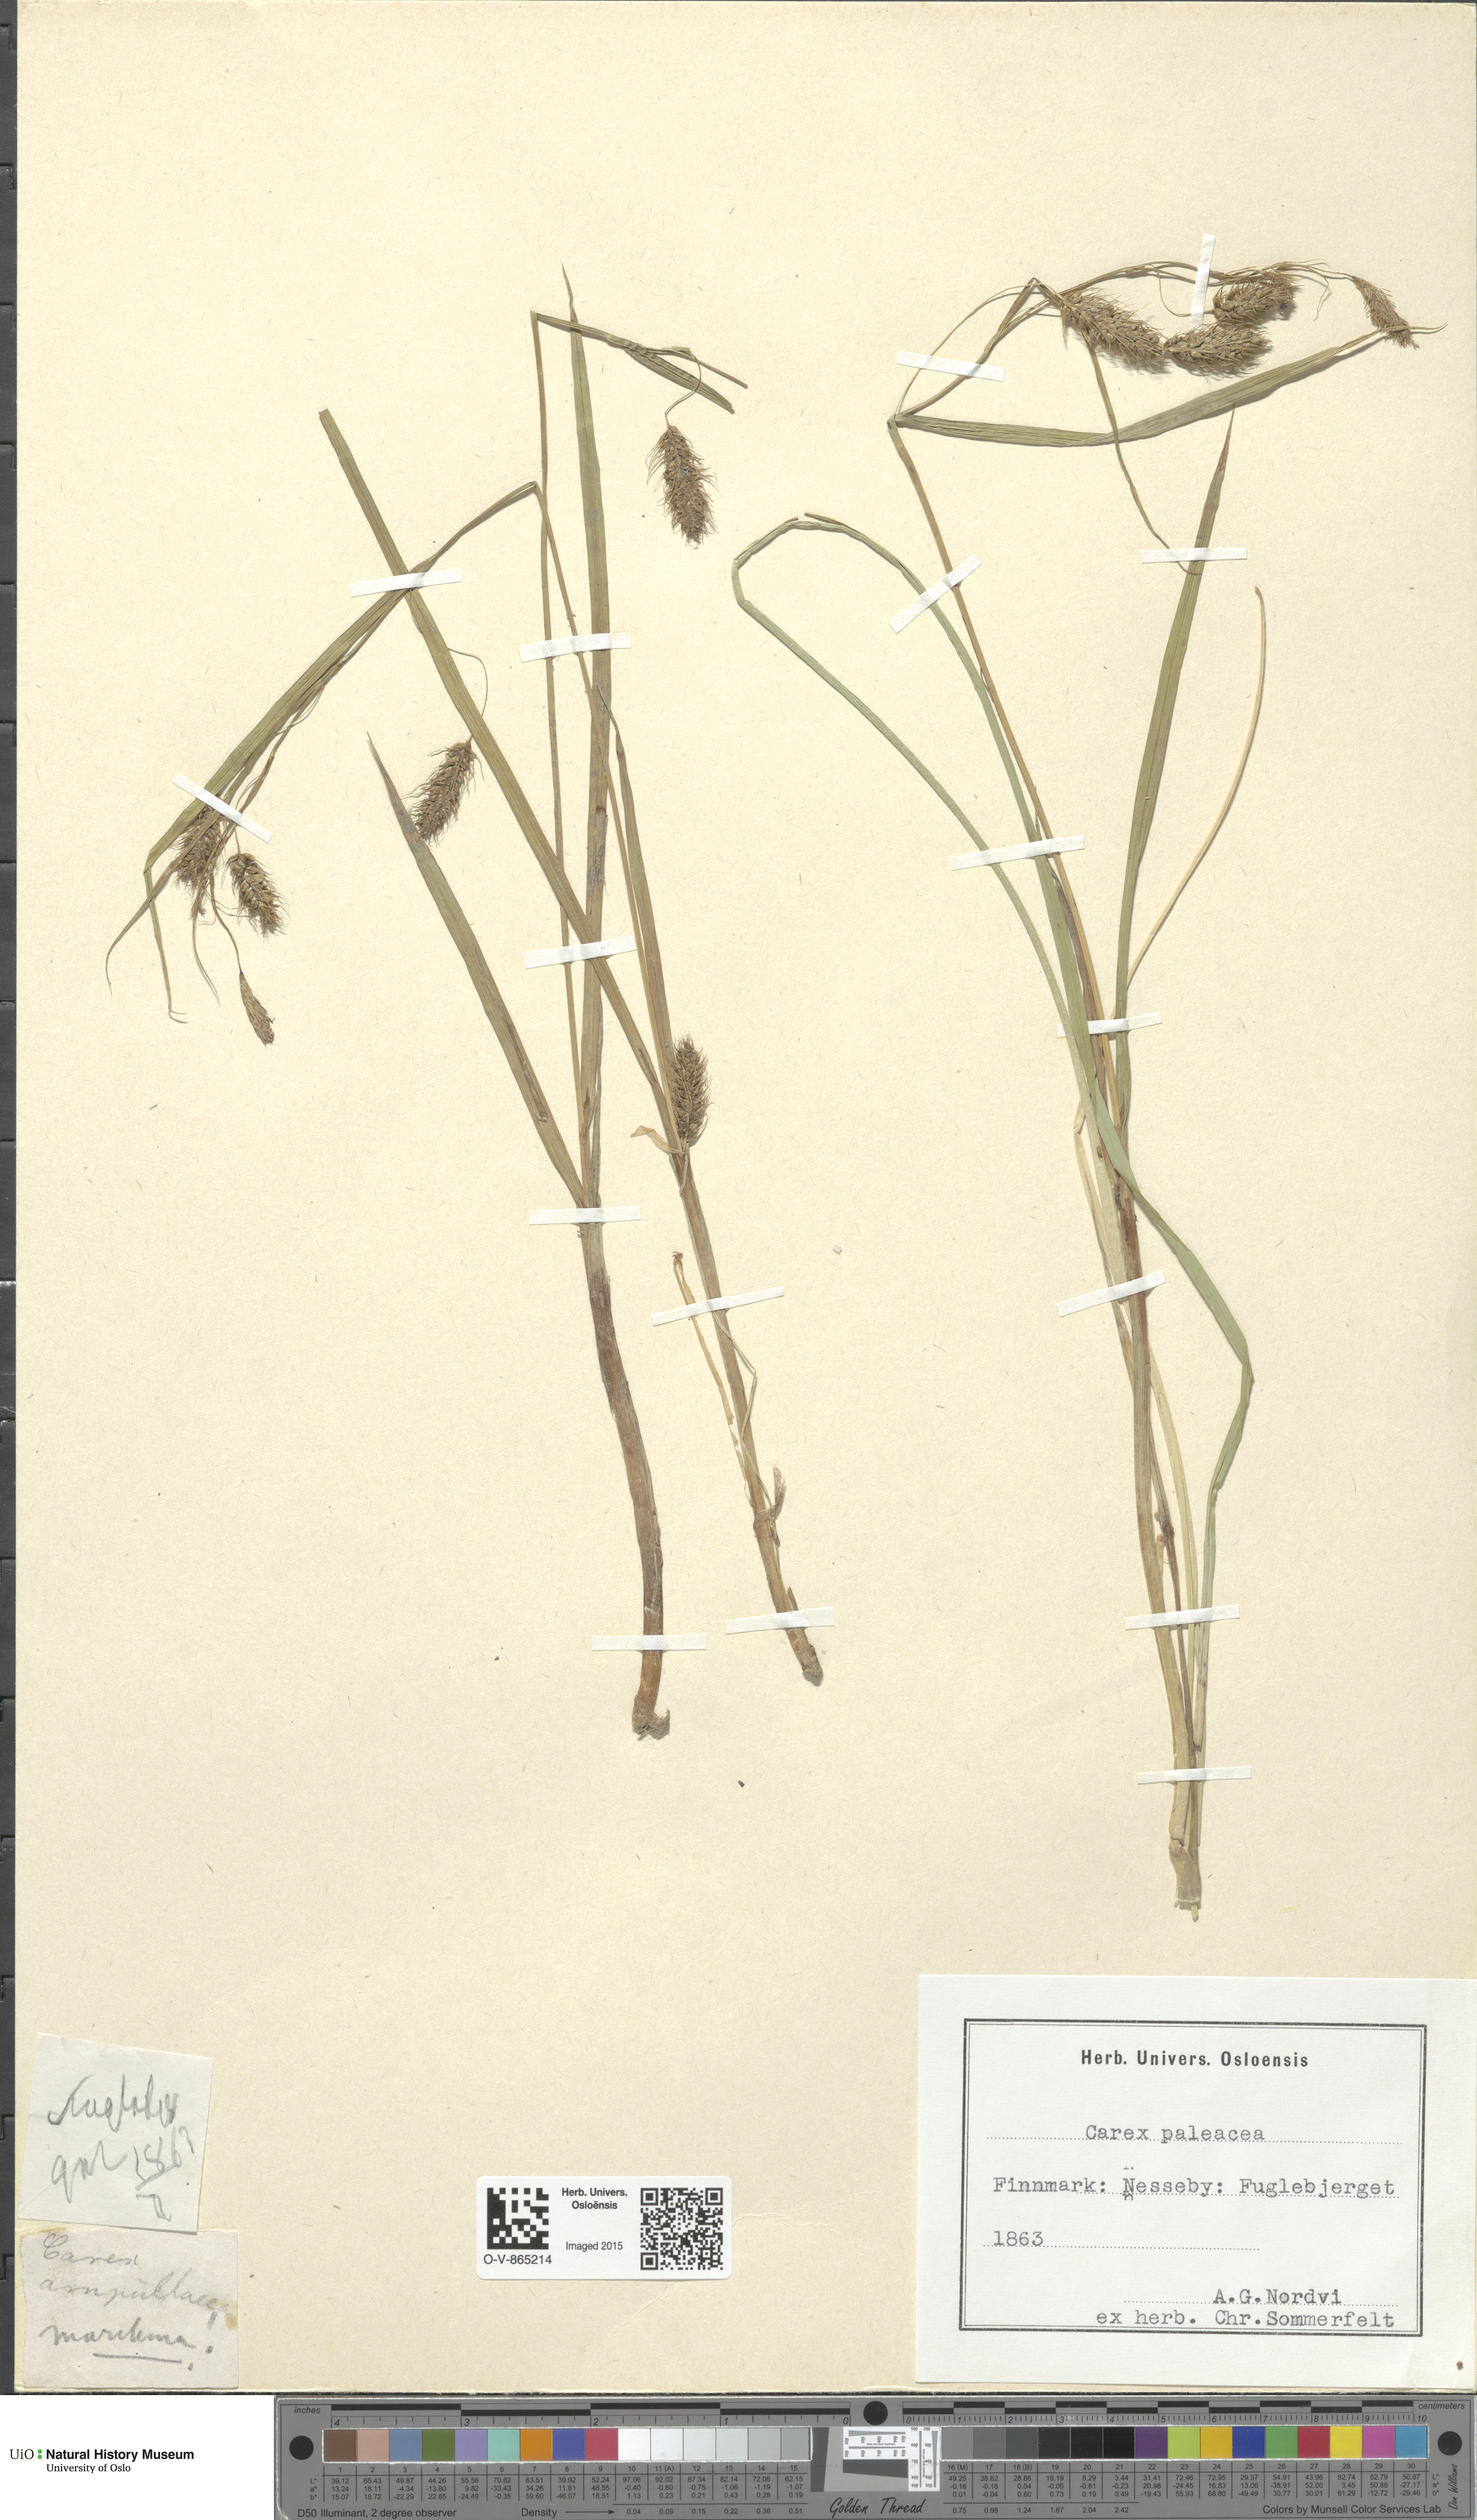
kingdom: Plantae
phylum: Tracheophyta
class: Liliopsida
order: Poales
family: Cyperaceae
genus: Carex
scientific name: Carex paleacea
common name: Chaffy sedge
